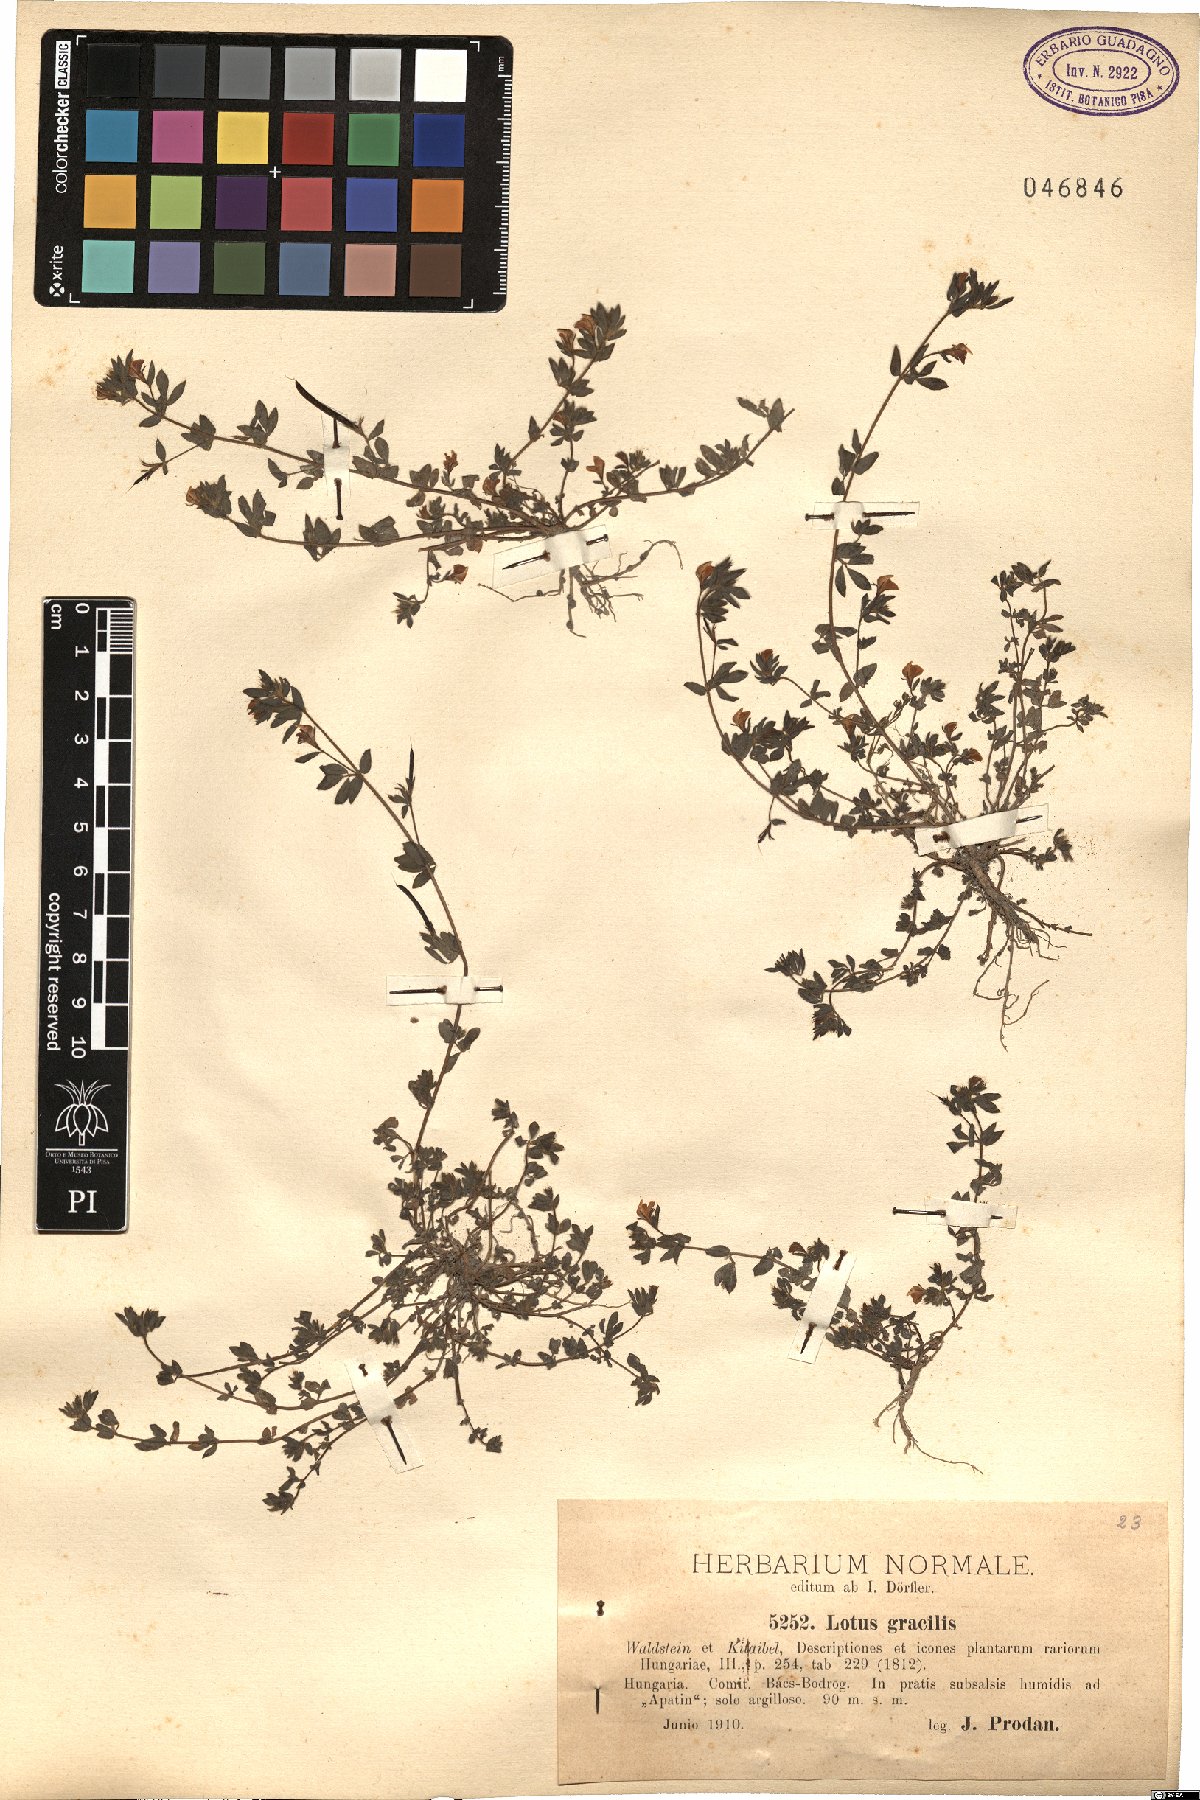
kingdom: Plantae
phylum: Tracheophyta
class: Magnoliopsida
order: Fabales
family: Fabaceae
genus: Lotus
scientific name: Lotus angustissimus
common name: Slender bird's-foot trefoil
